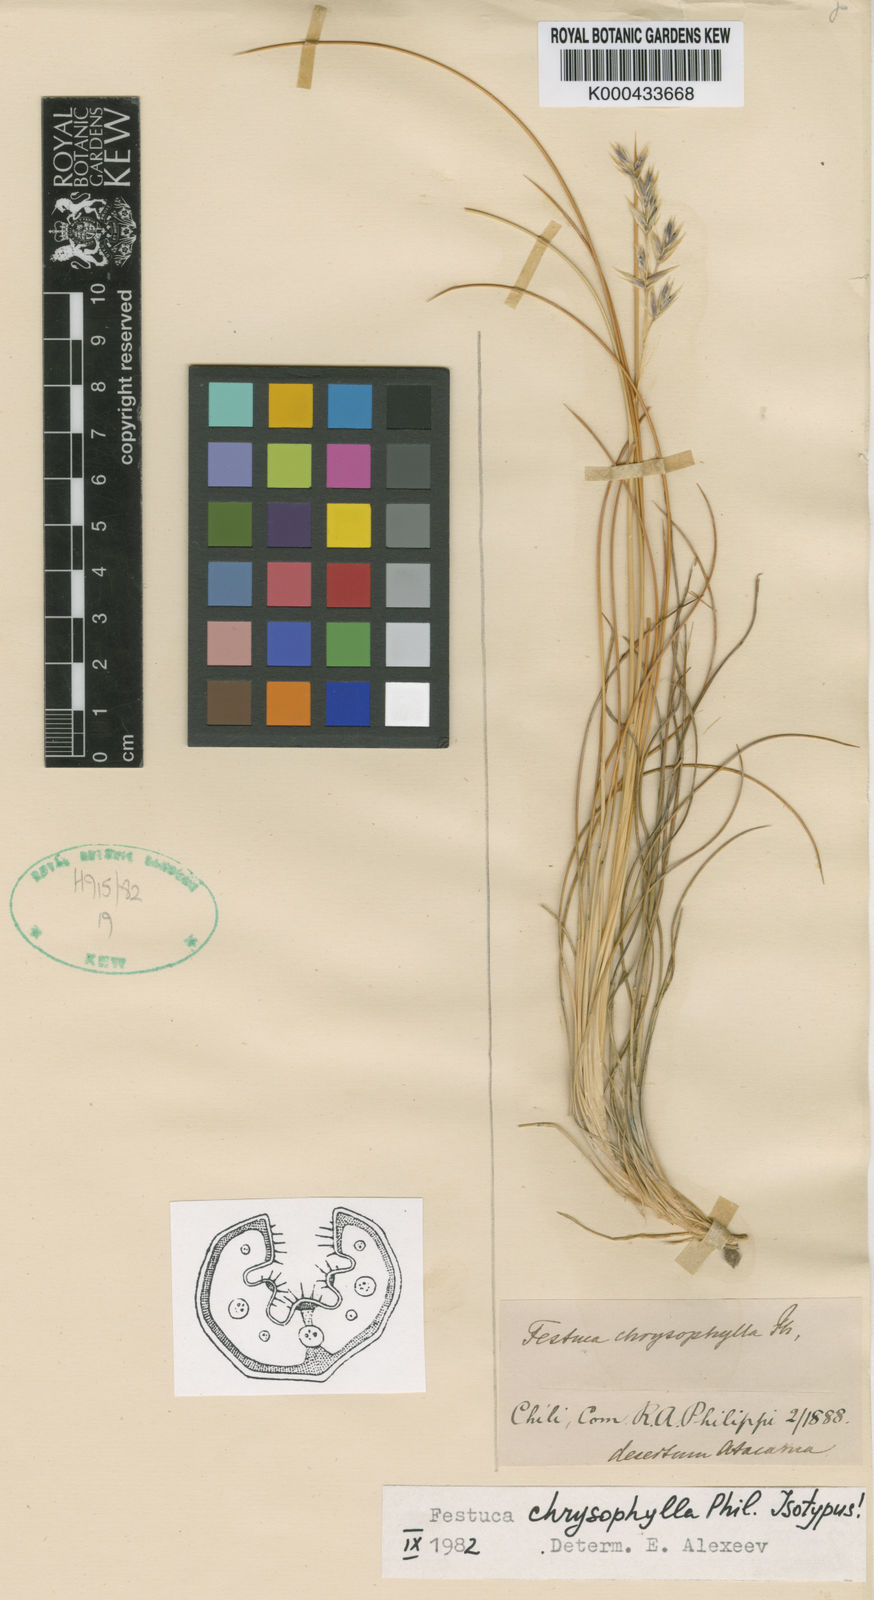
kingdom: Plantae
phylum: Tracheophyta
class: Liliopsida
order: Poales
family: Poaceae
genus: Festuca
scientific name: Festuca chrysophylla
